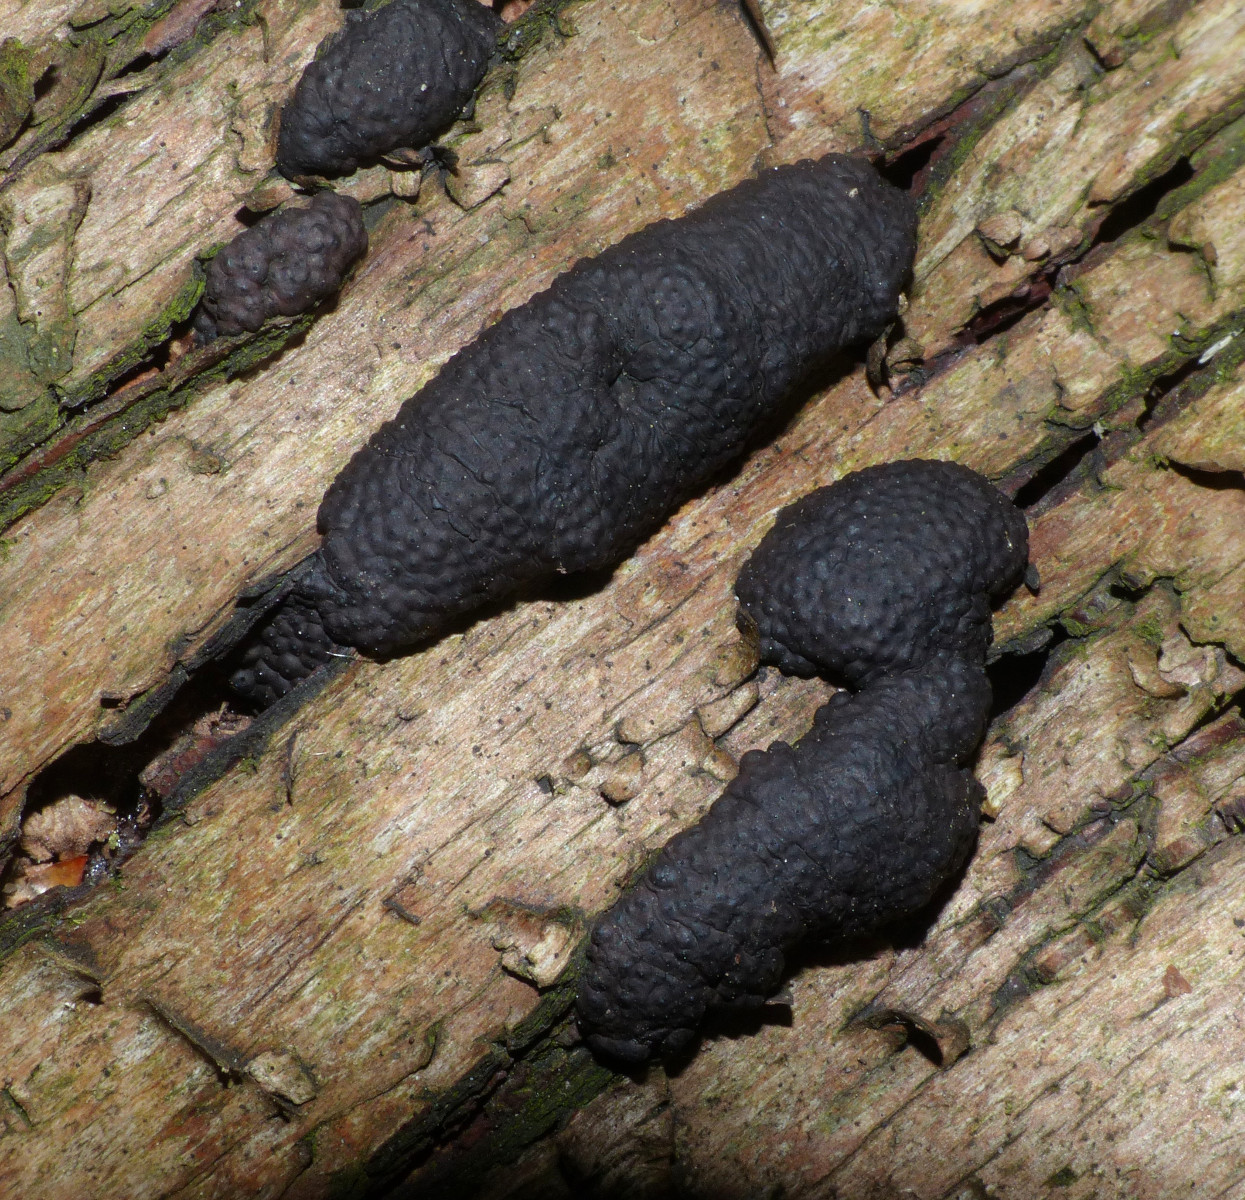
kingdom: Fungi
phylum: Ascomycota
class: Sordariomycetes
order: Xylariales
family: Hypoxylaceae
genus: Jackrogersella
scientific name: Jackrogersella multiformis
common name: foranderlig kulbær
